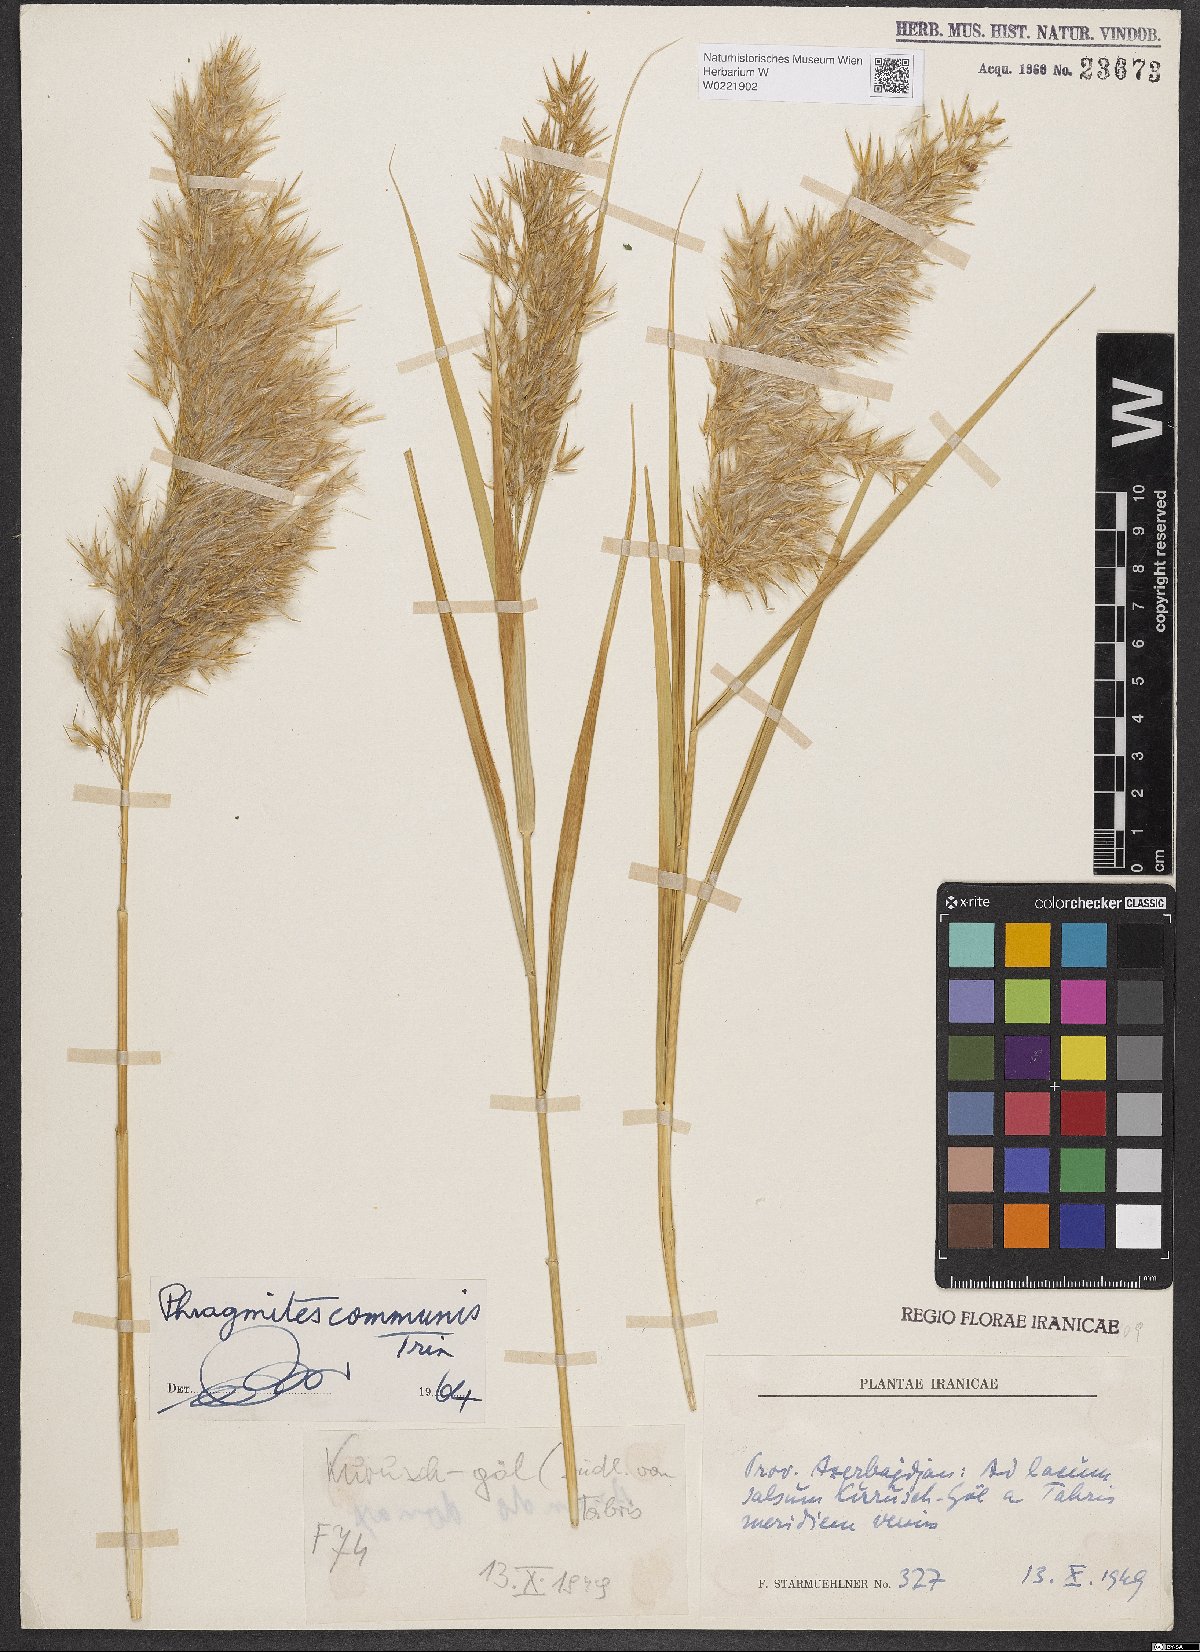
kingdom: Plantae
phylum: Tracheophyta
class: Liliopsida
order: Poales
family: Poaceae
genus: Phragmites
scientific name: Phragmites australis
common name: Common reed
